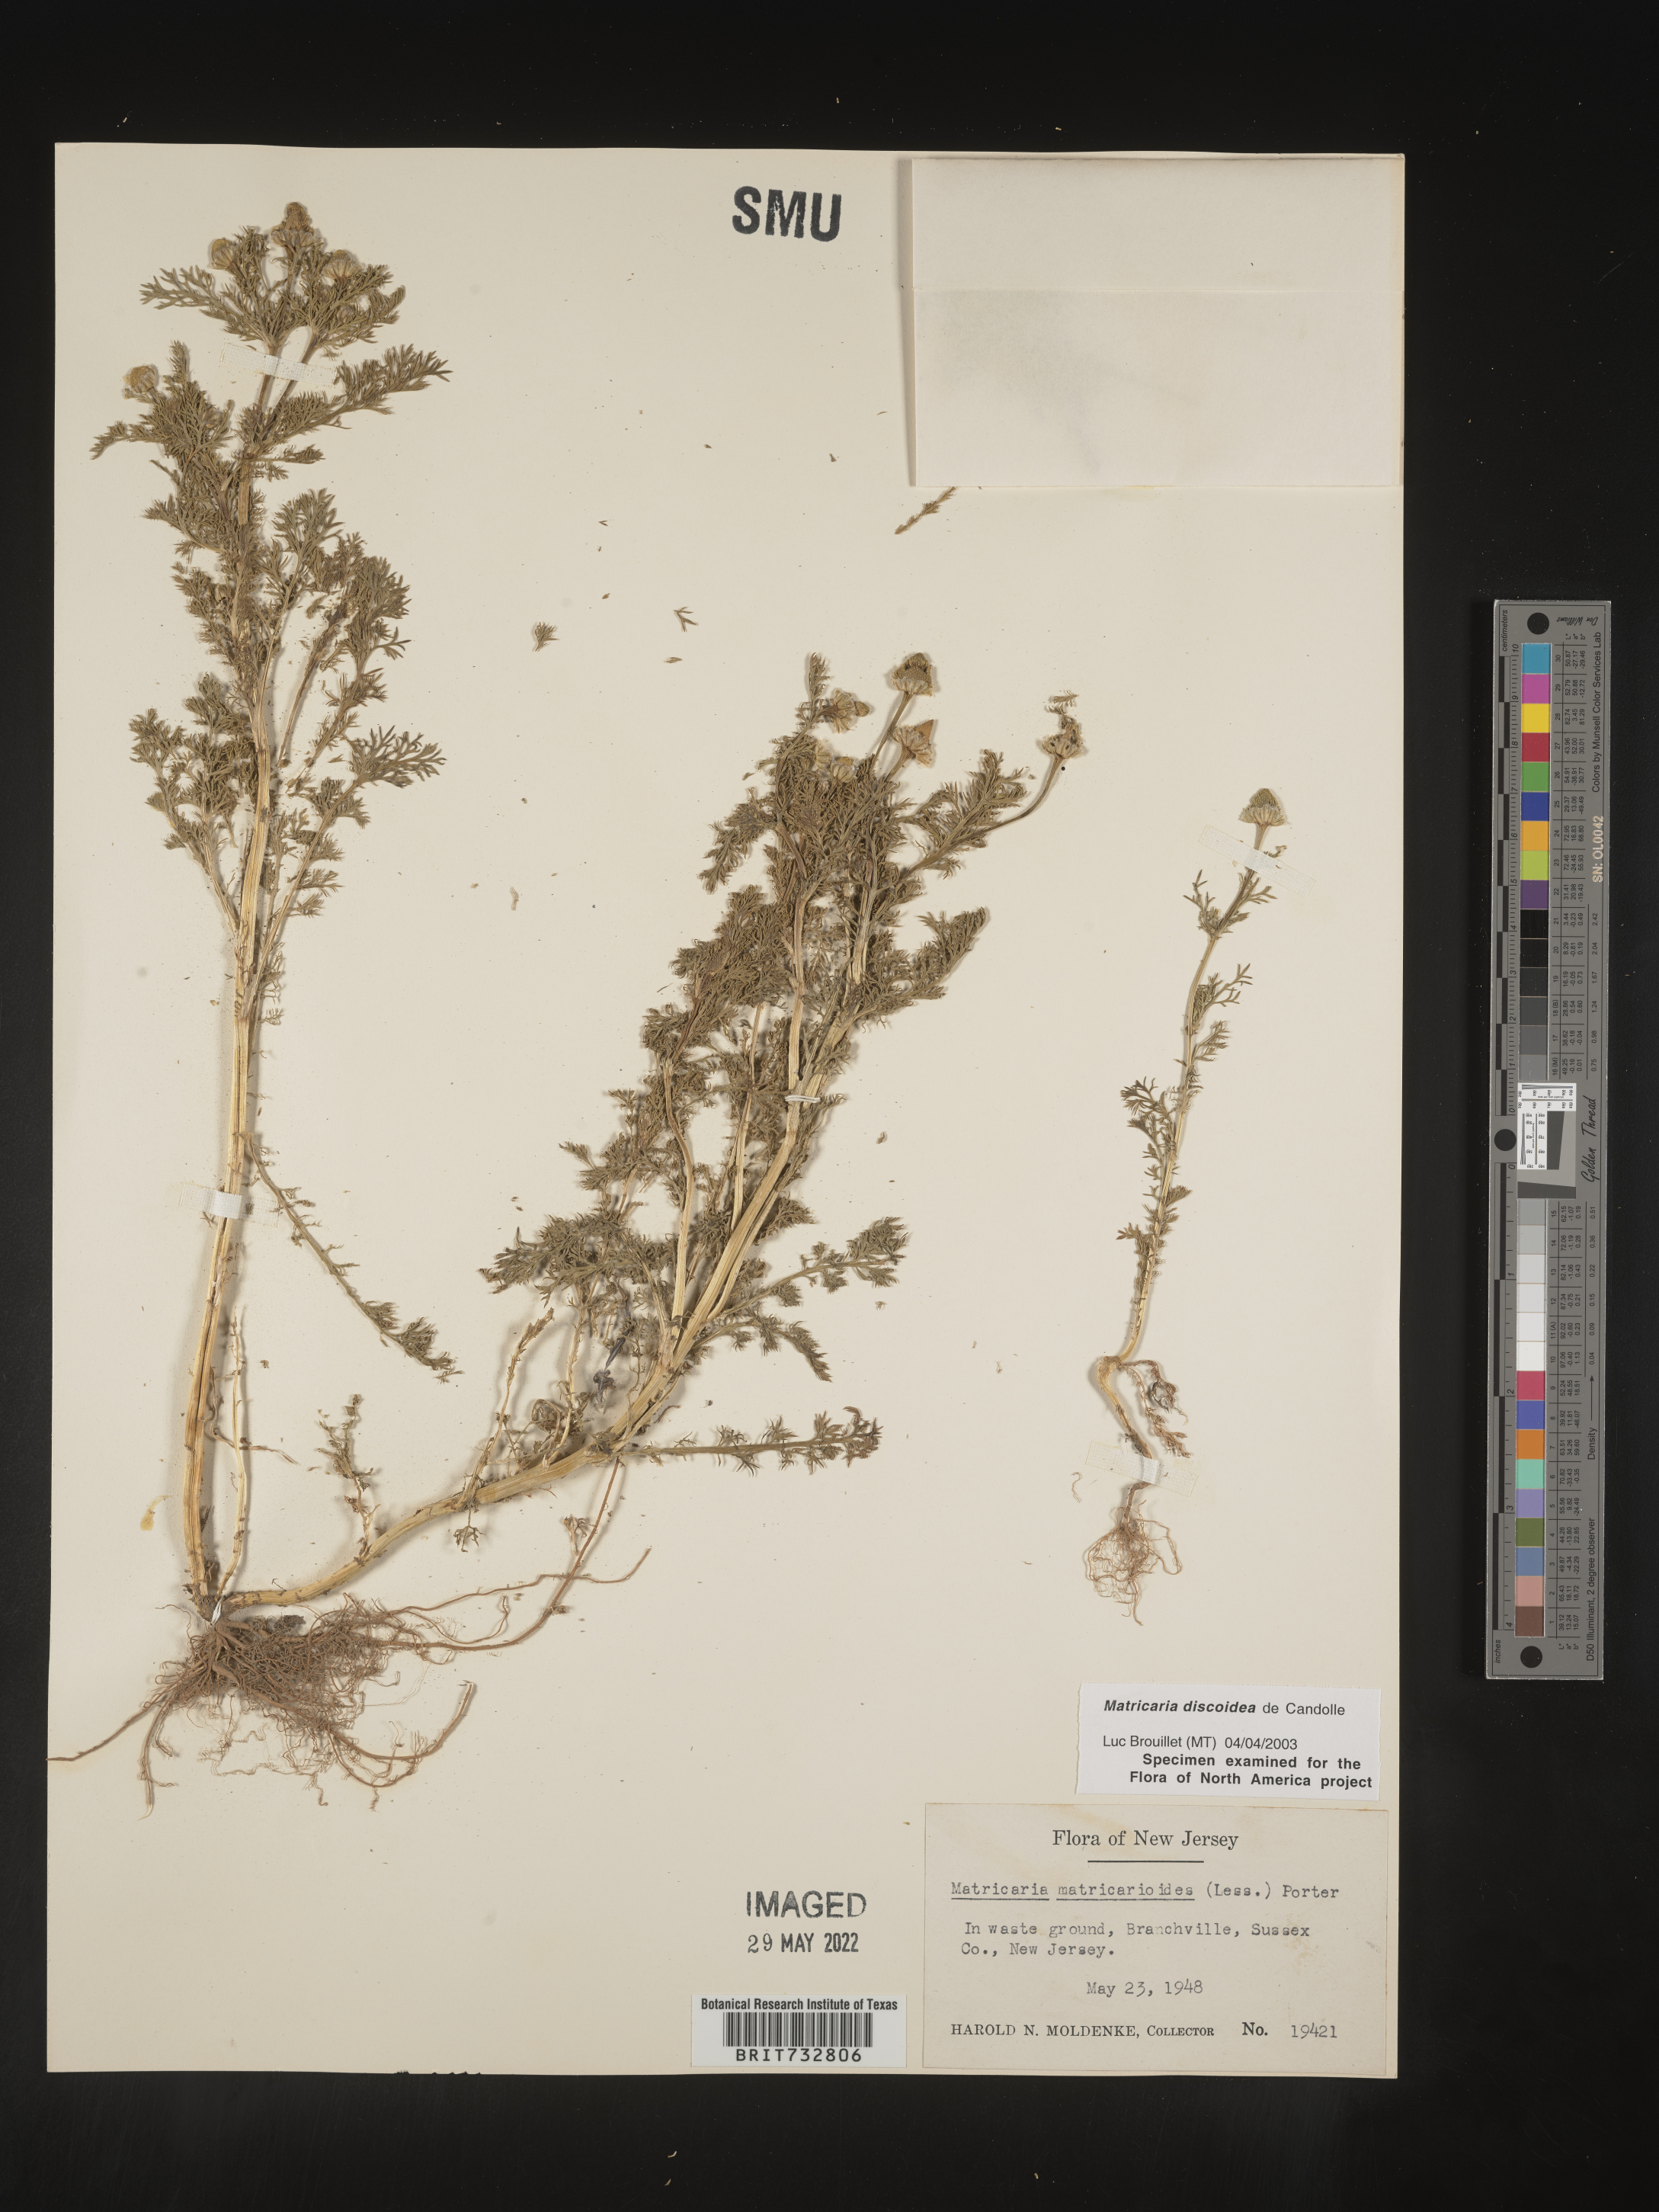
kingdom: Plantae
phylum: Tracheophyta
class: Magnoliopsida
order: Asterales
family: Asteraceae
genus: Matricaria
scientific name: Matricaria discoidea
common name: Disc mayweed
